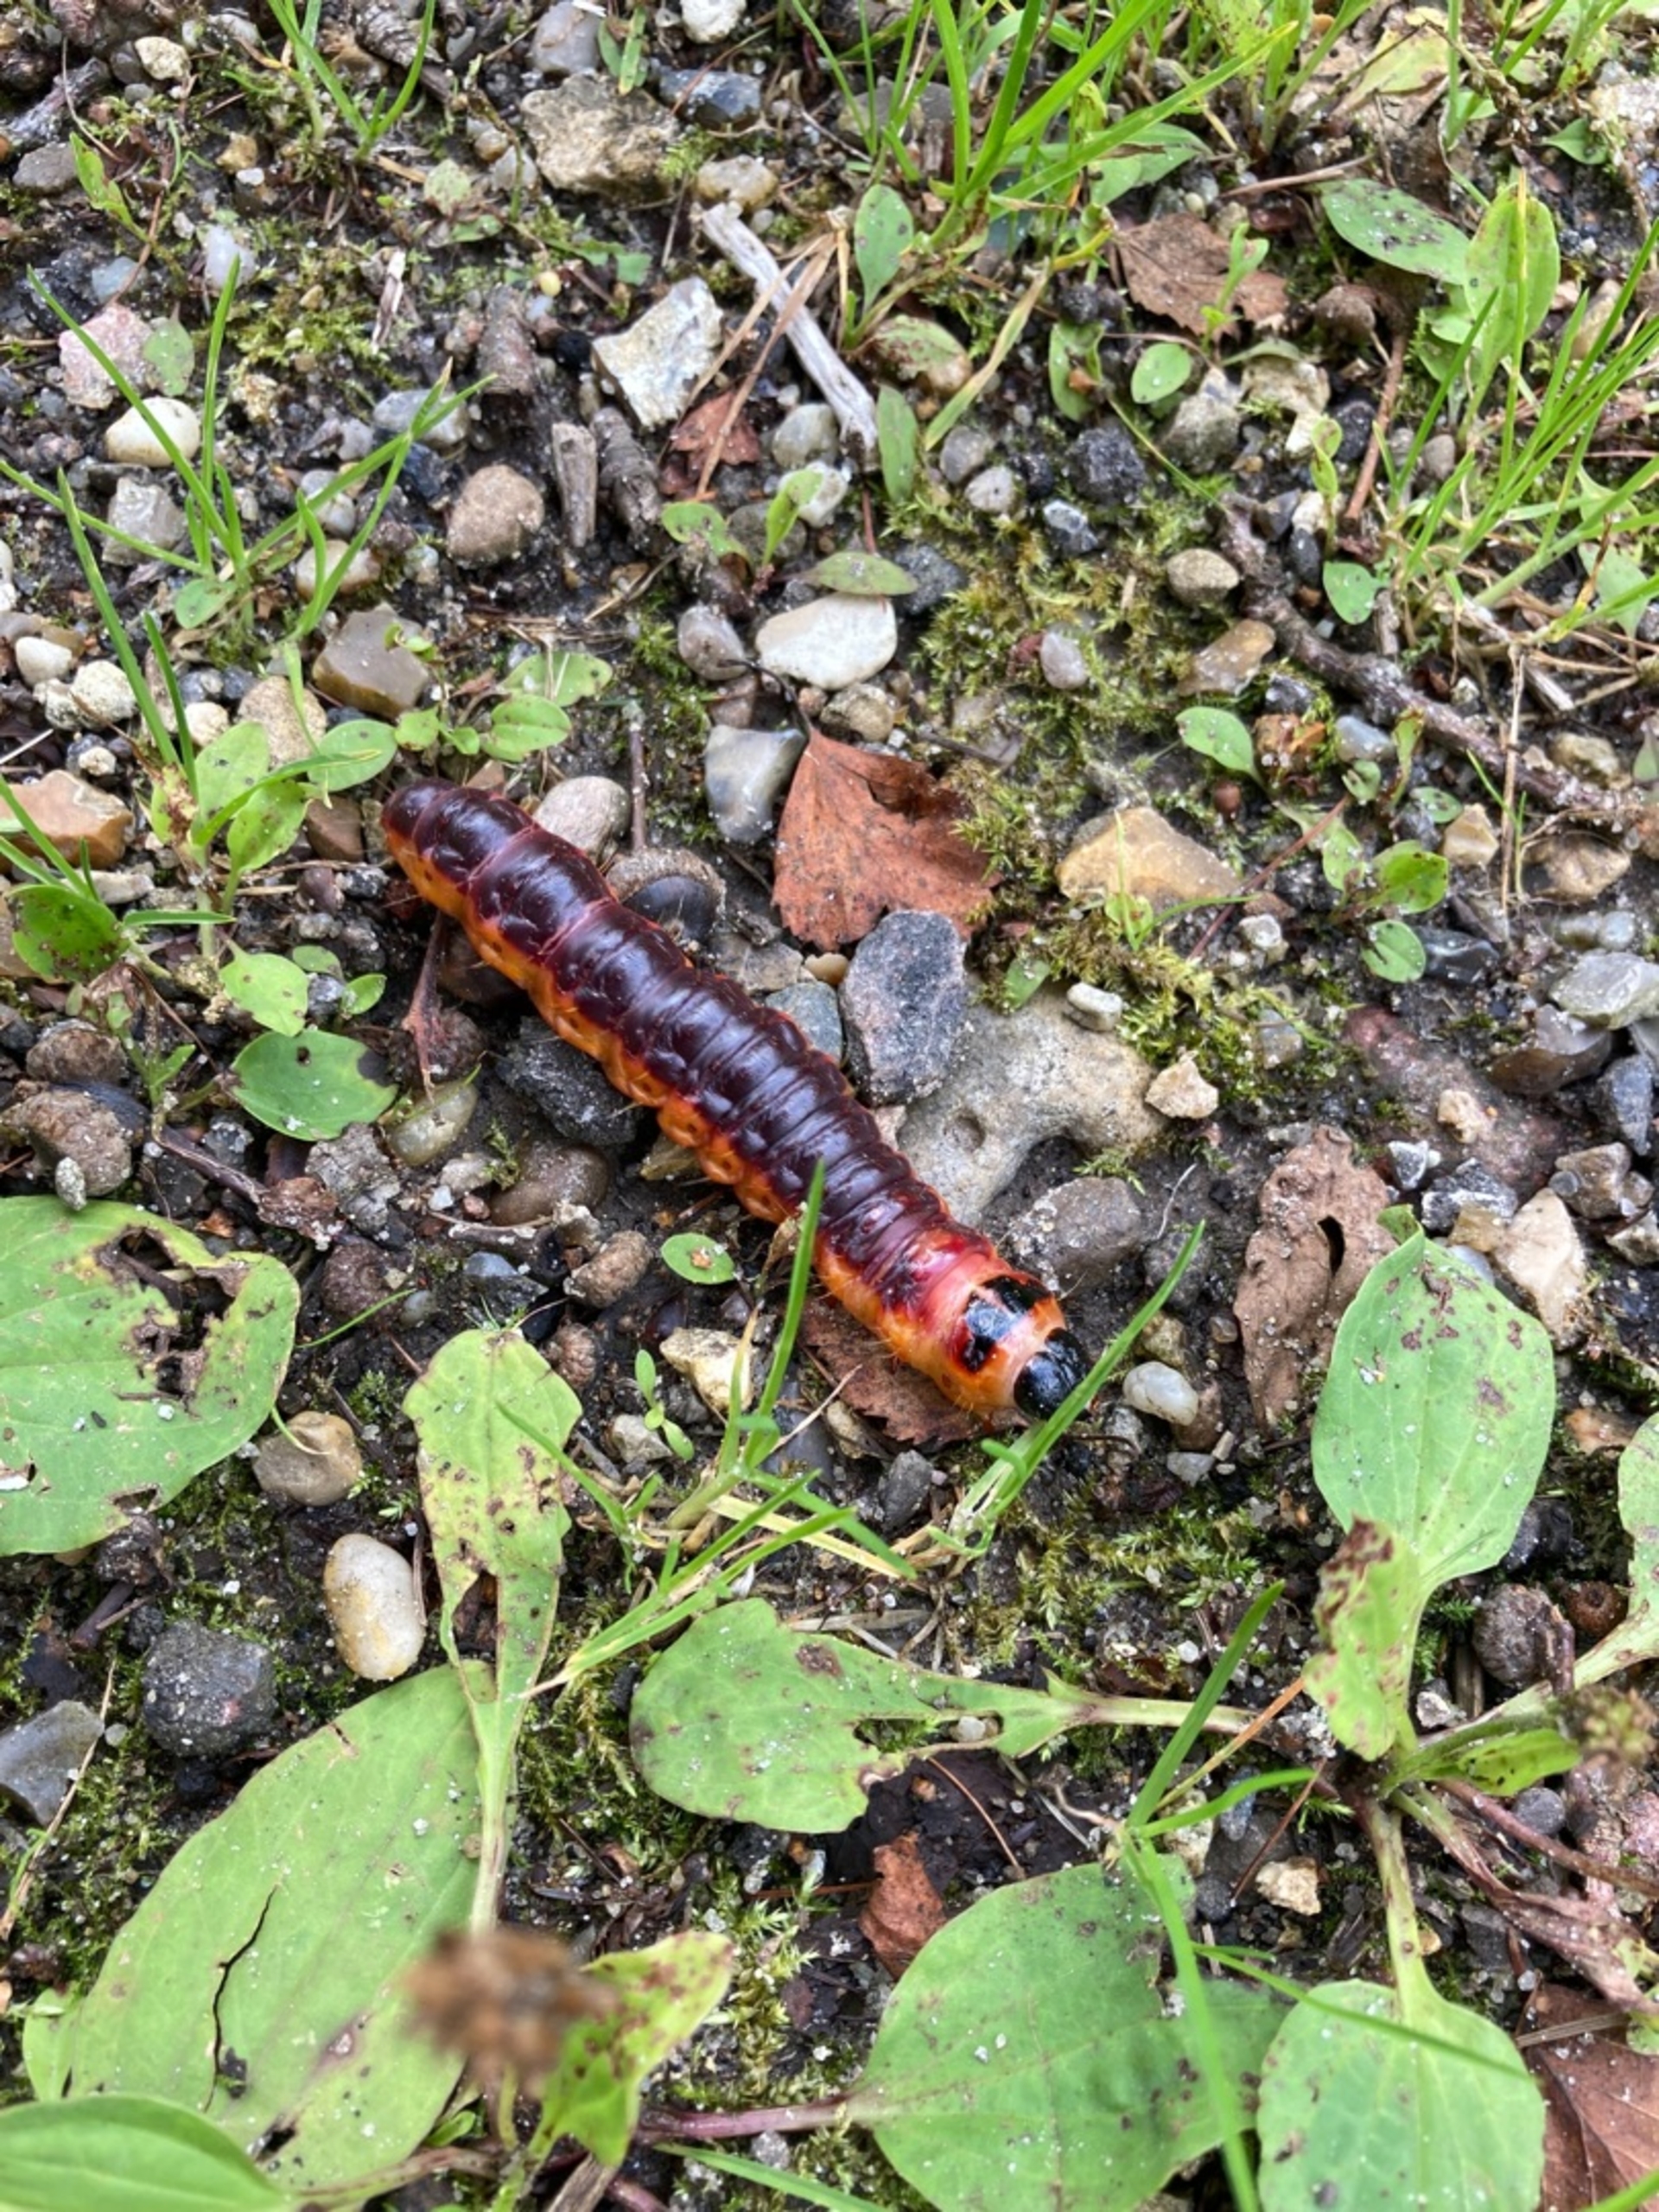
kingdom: Animalia
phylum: Arthropoda
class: Insecta
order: Lepidoptera
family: Cossidae
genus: Cossus
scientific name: Cossus cossus
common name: Pileborer
